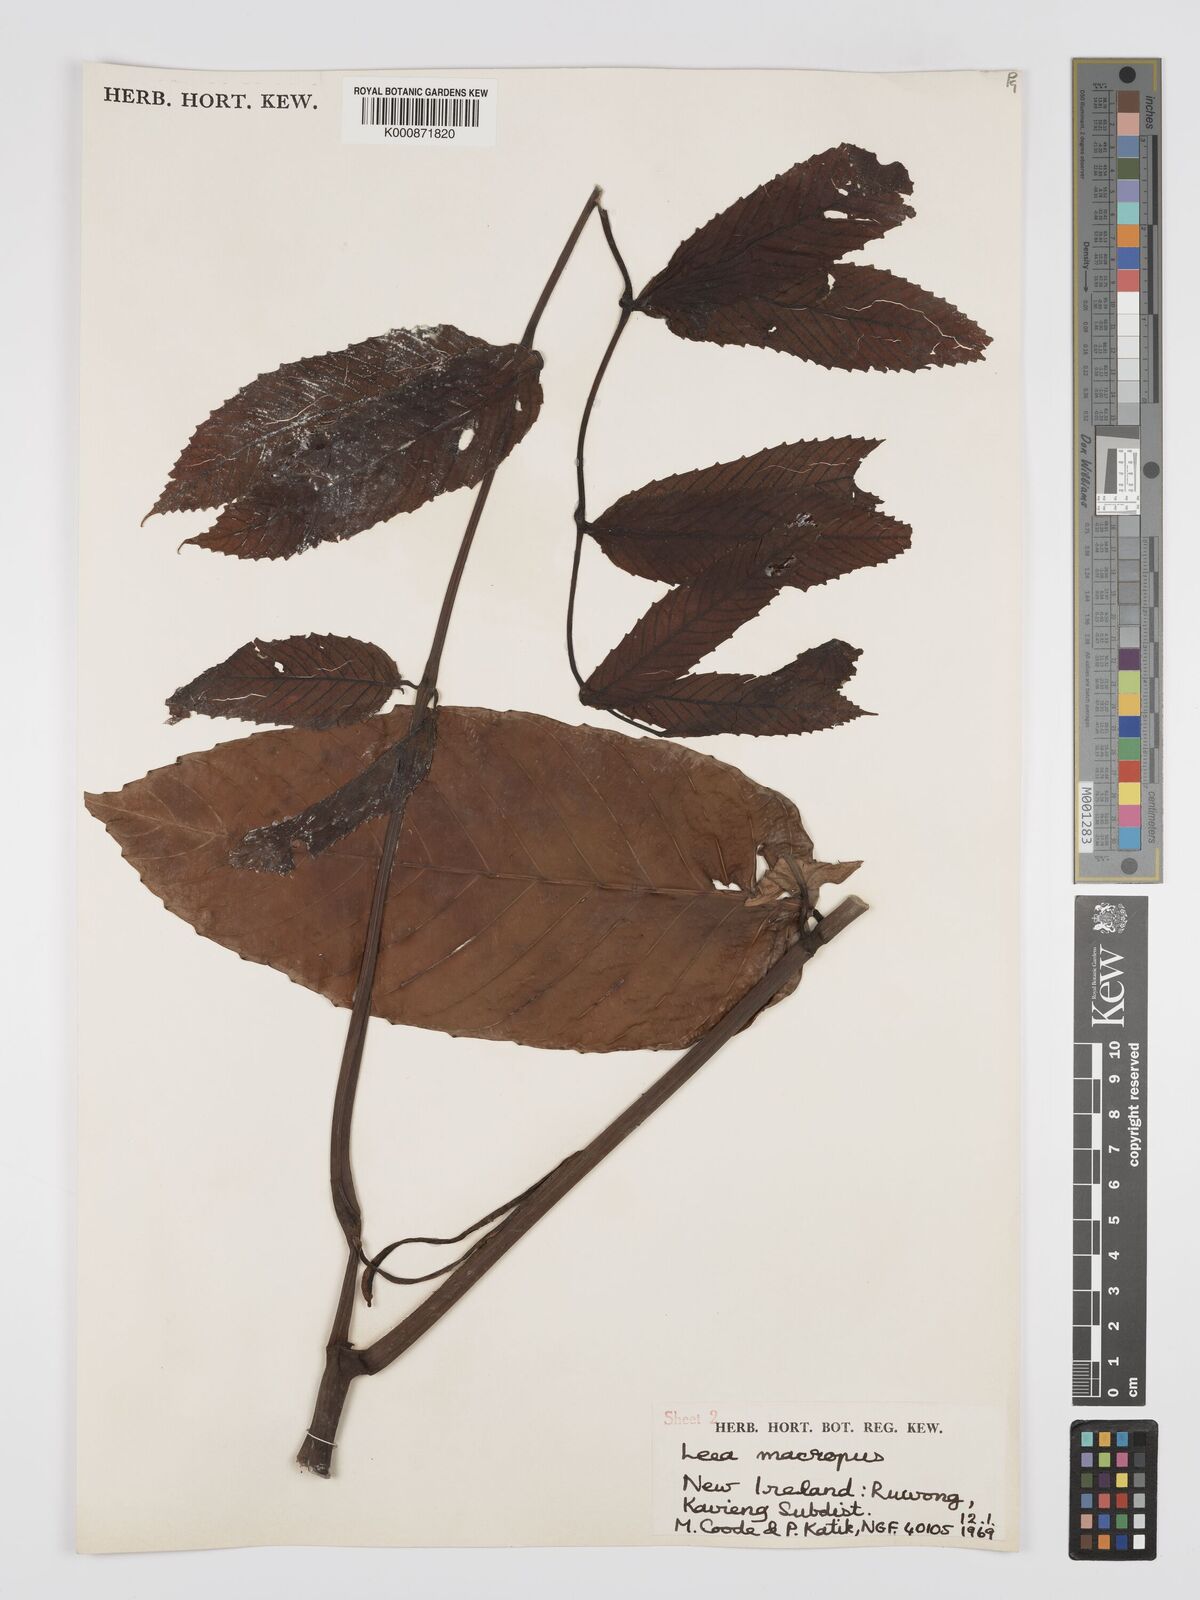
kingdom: Plantae
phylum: Tracheophyta
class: Magnoliopsida
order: Vitales
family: Vitaceae
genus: Leea
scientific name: Leea macropus
